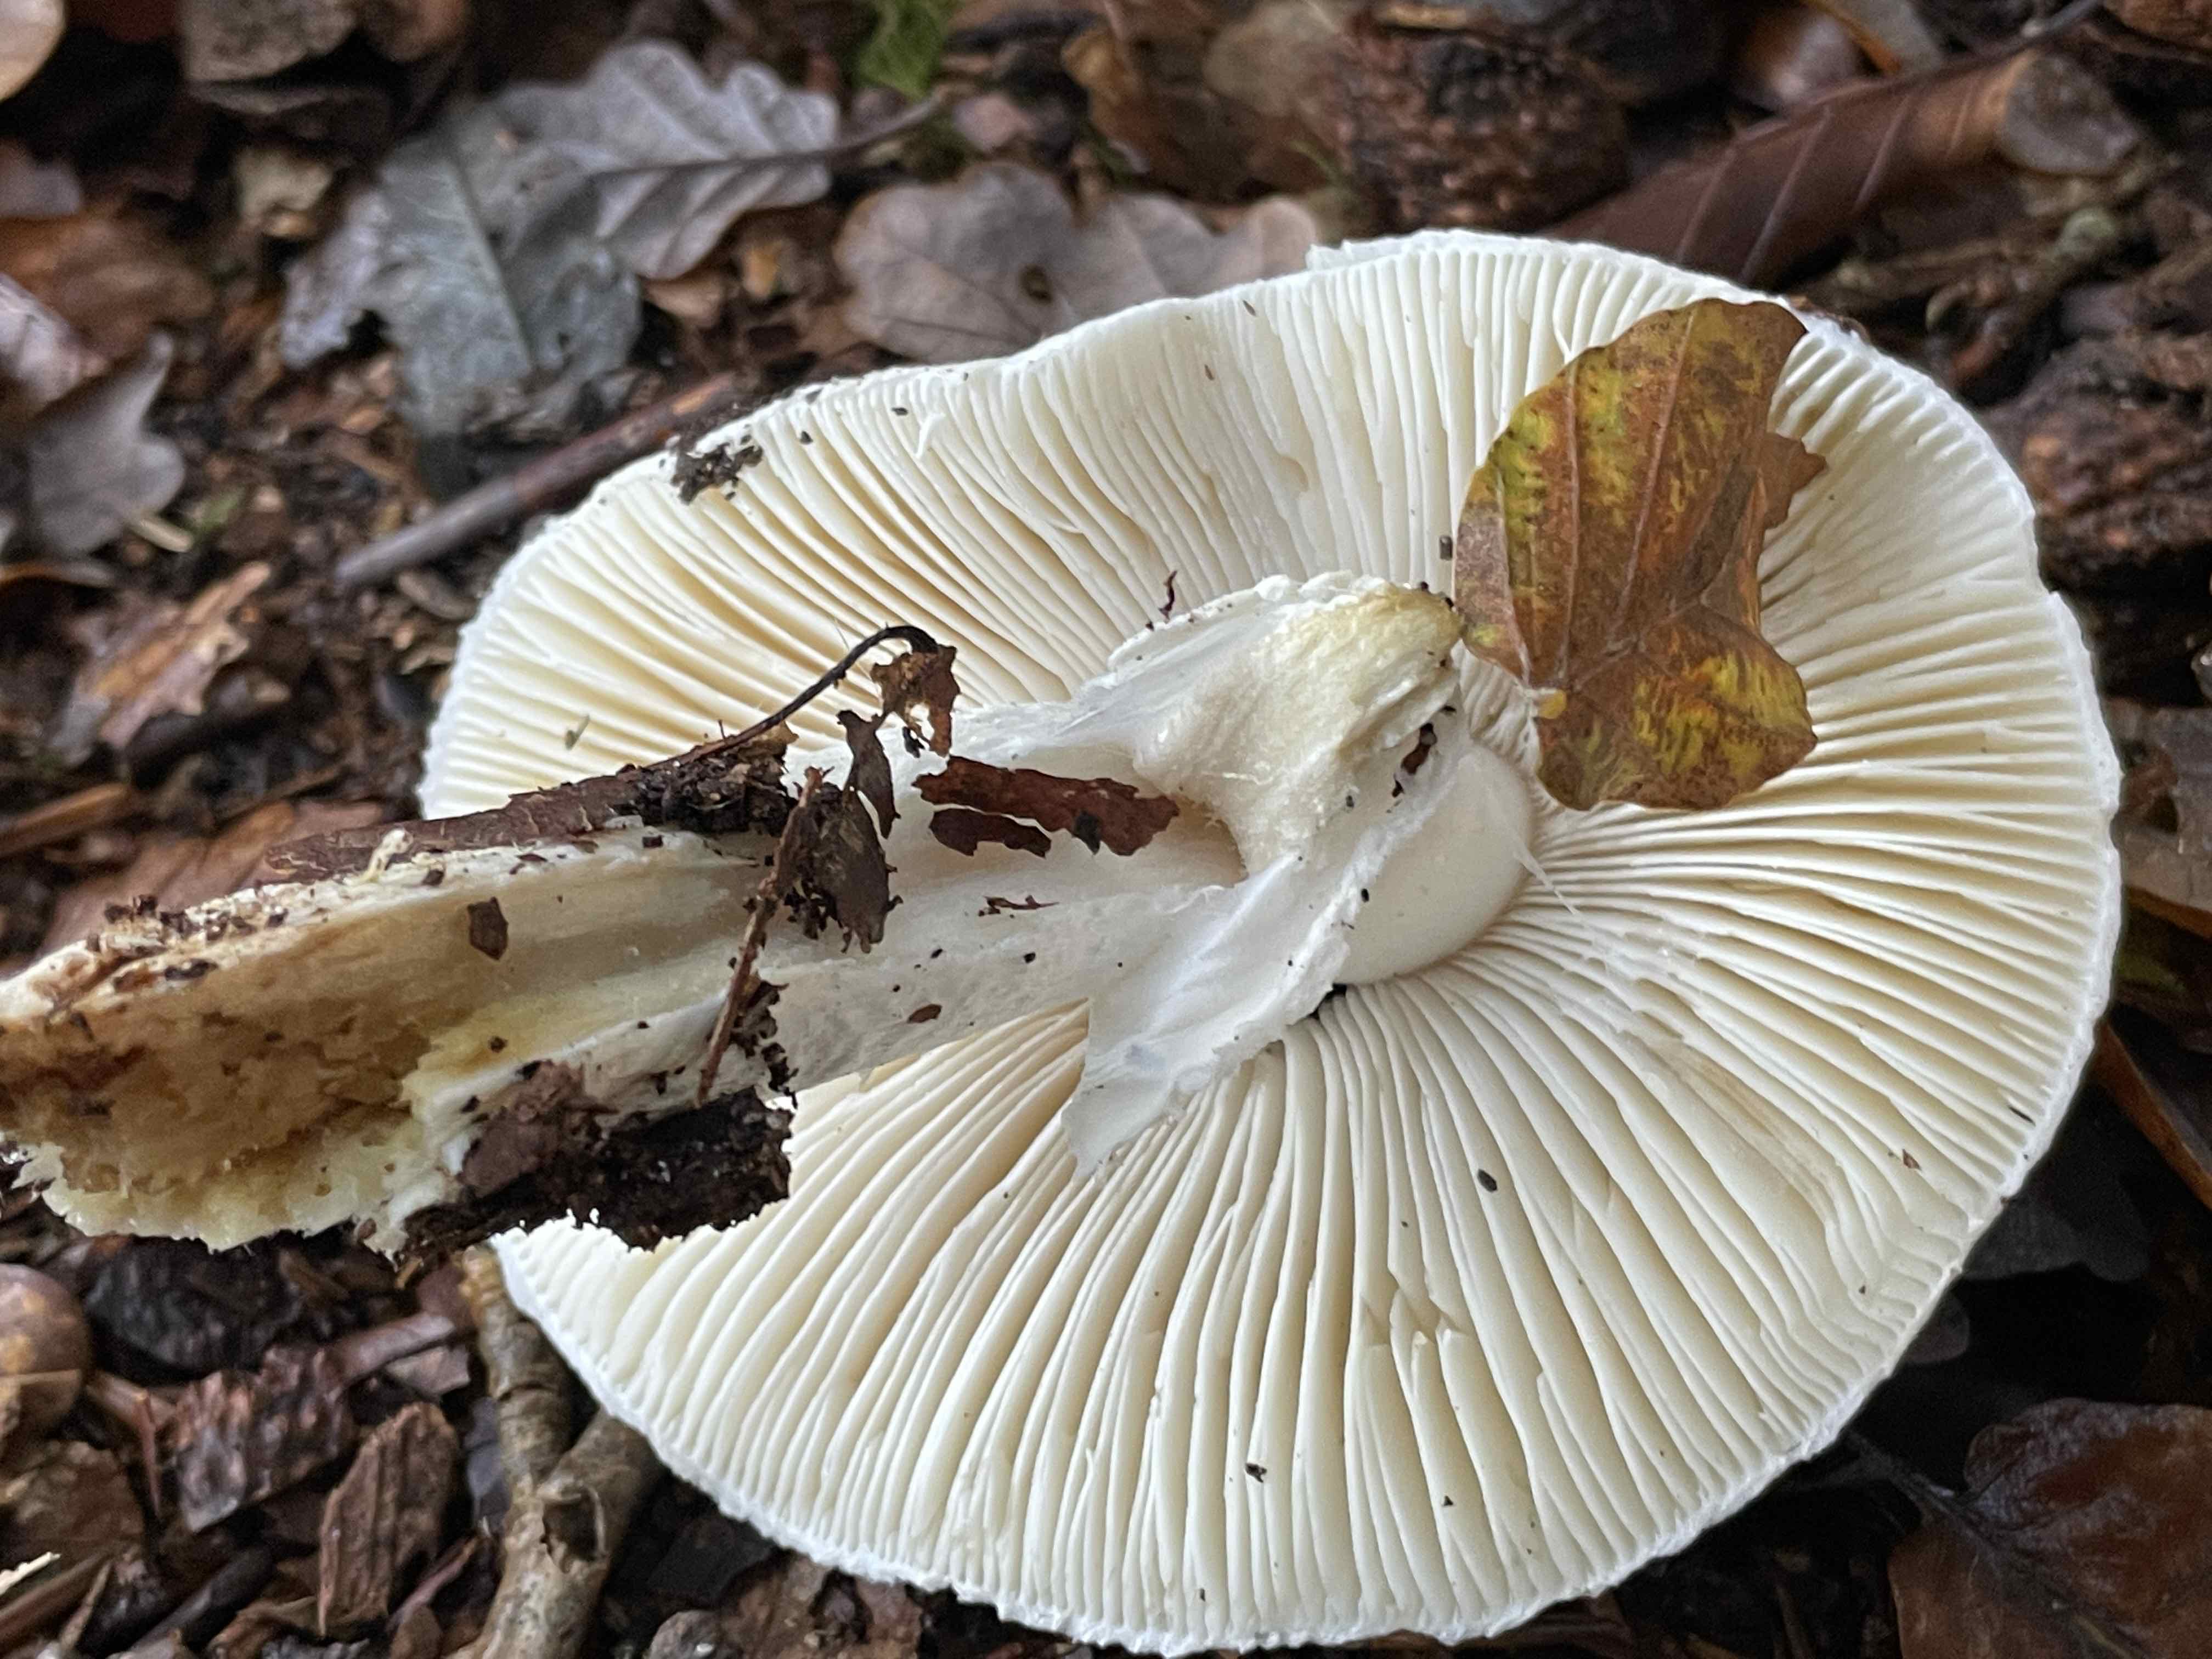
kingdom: Fungi
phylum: Basidiomycota
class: Agaricomycetes
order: Agaricales
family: Amanitaceae
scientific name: Amanitaceae
